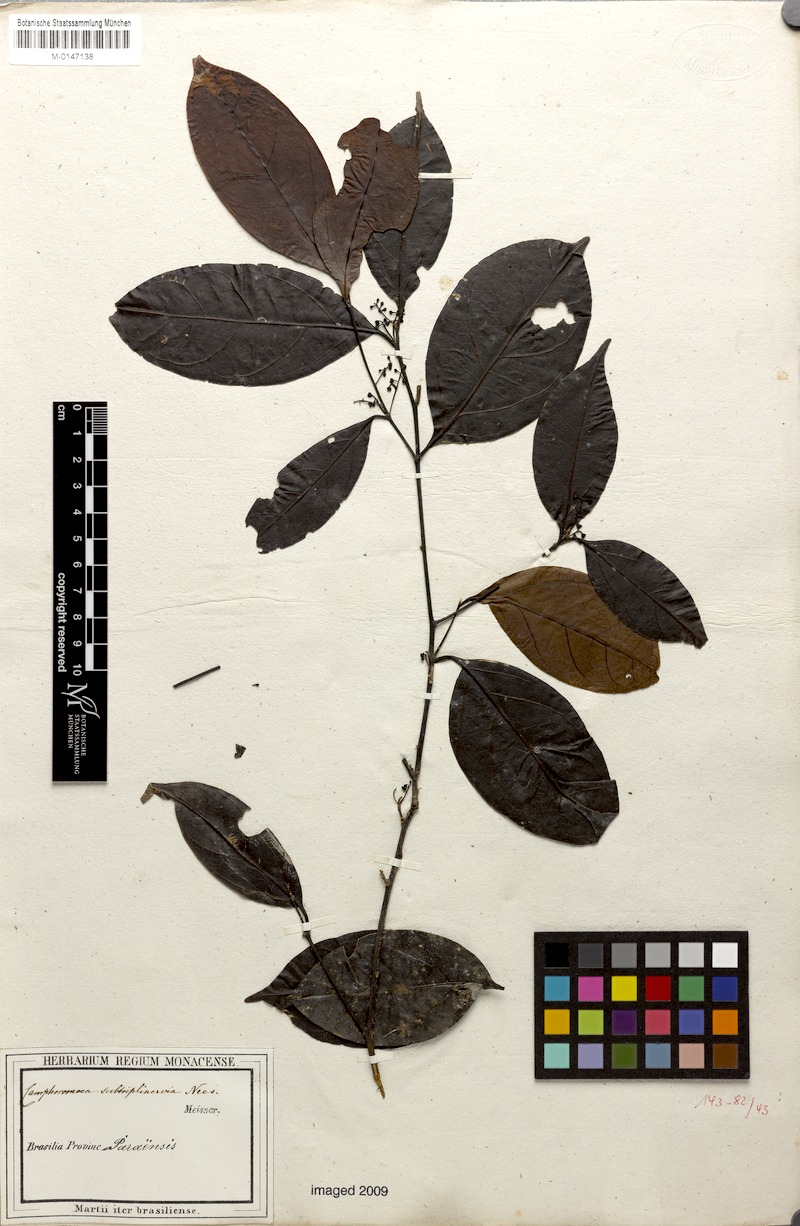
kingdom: Plantae
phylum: Tracheophyta
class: Magnoliopsida
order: Laurales
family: Lauraceae
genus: Ocotea
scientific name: Ocotea camphoromoea
